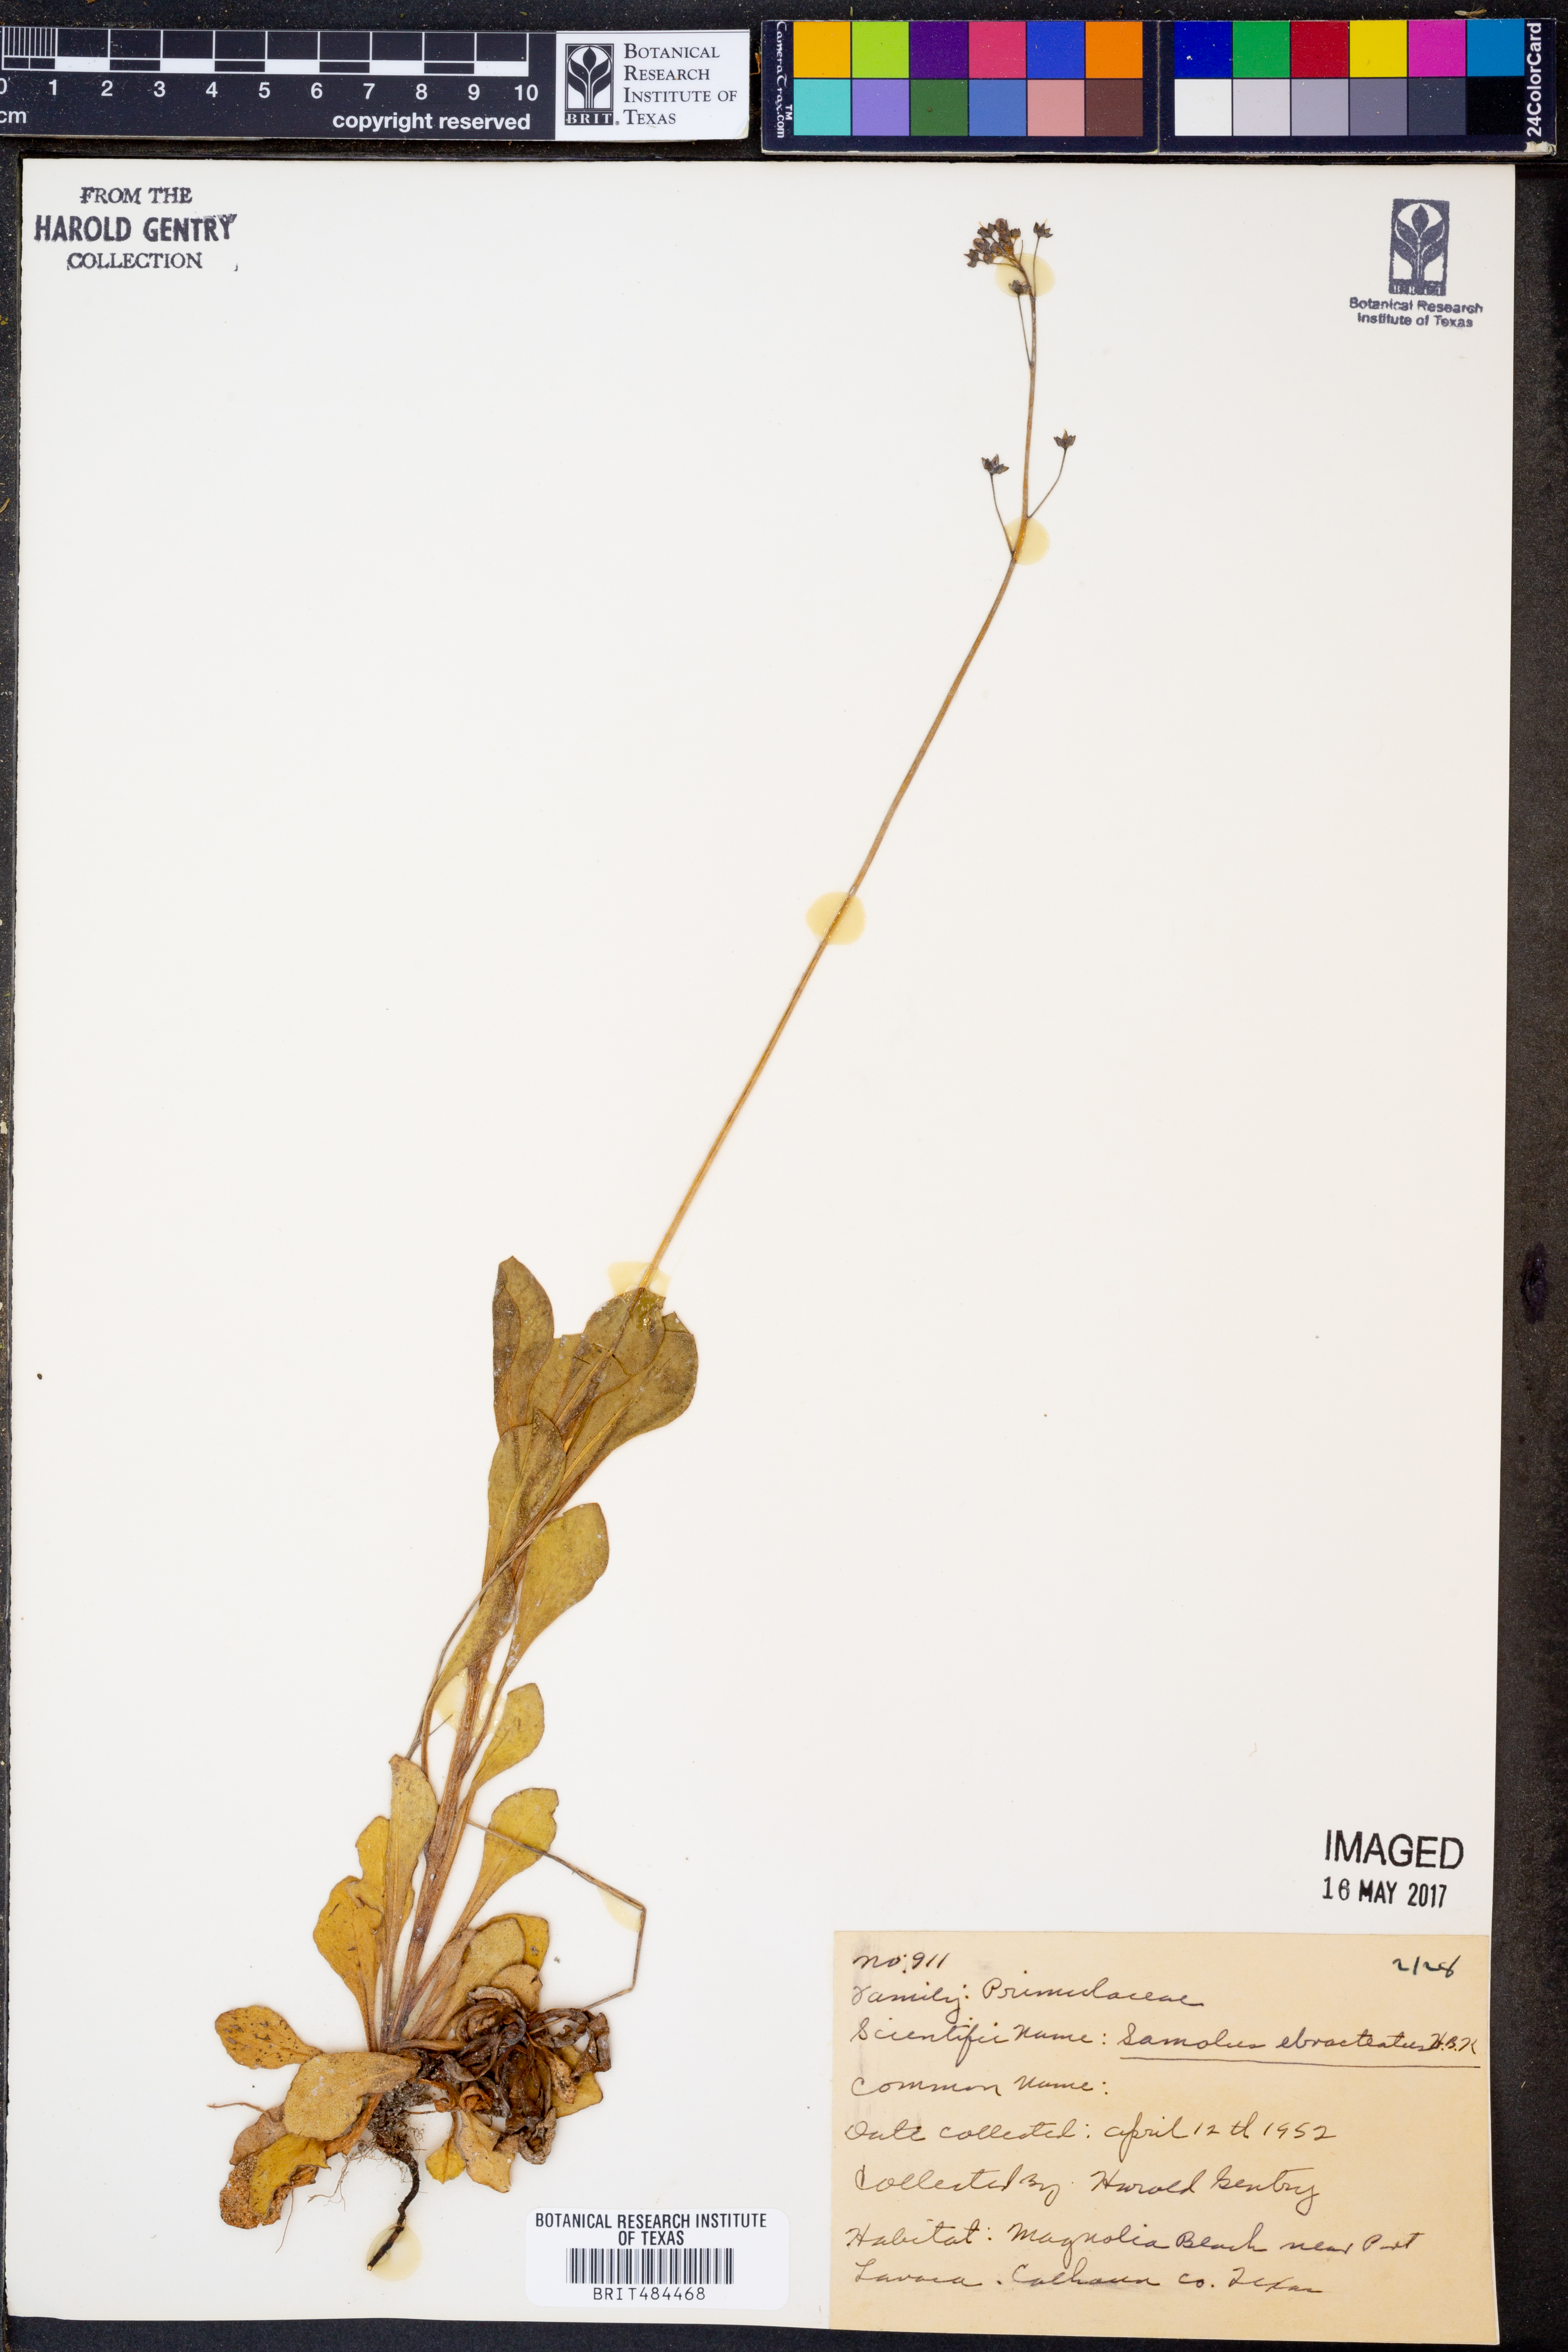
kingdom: Plantae
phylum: Tracheophyta
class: Magnoliopsida
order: Ericales
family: Primulaceae
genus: Samolus
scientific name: Samolus ebracteatus
